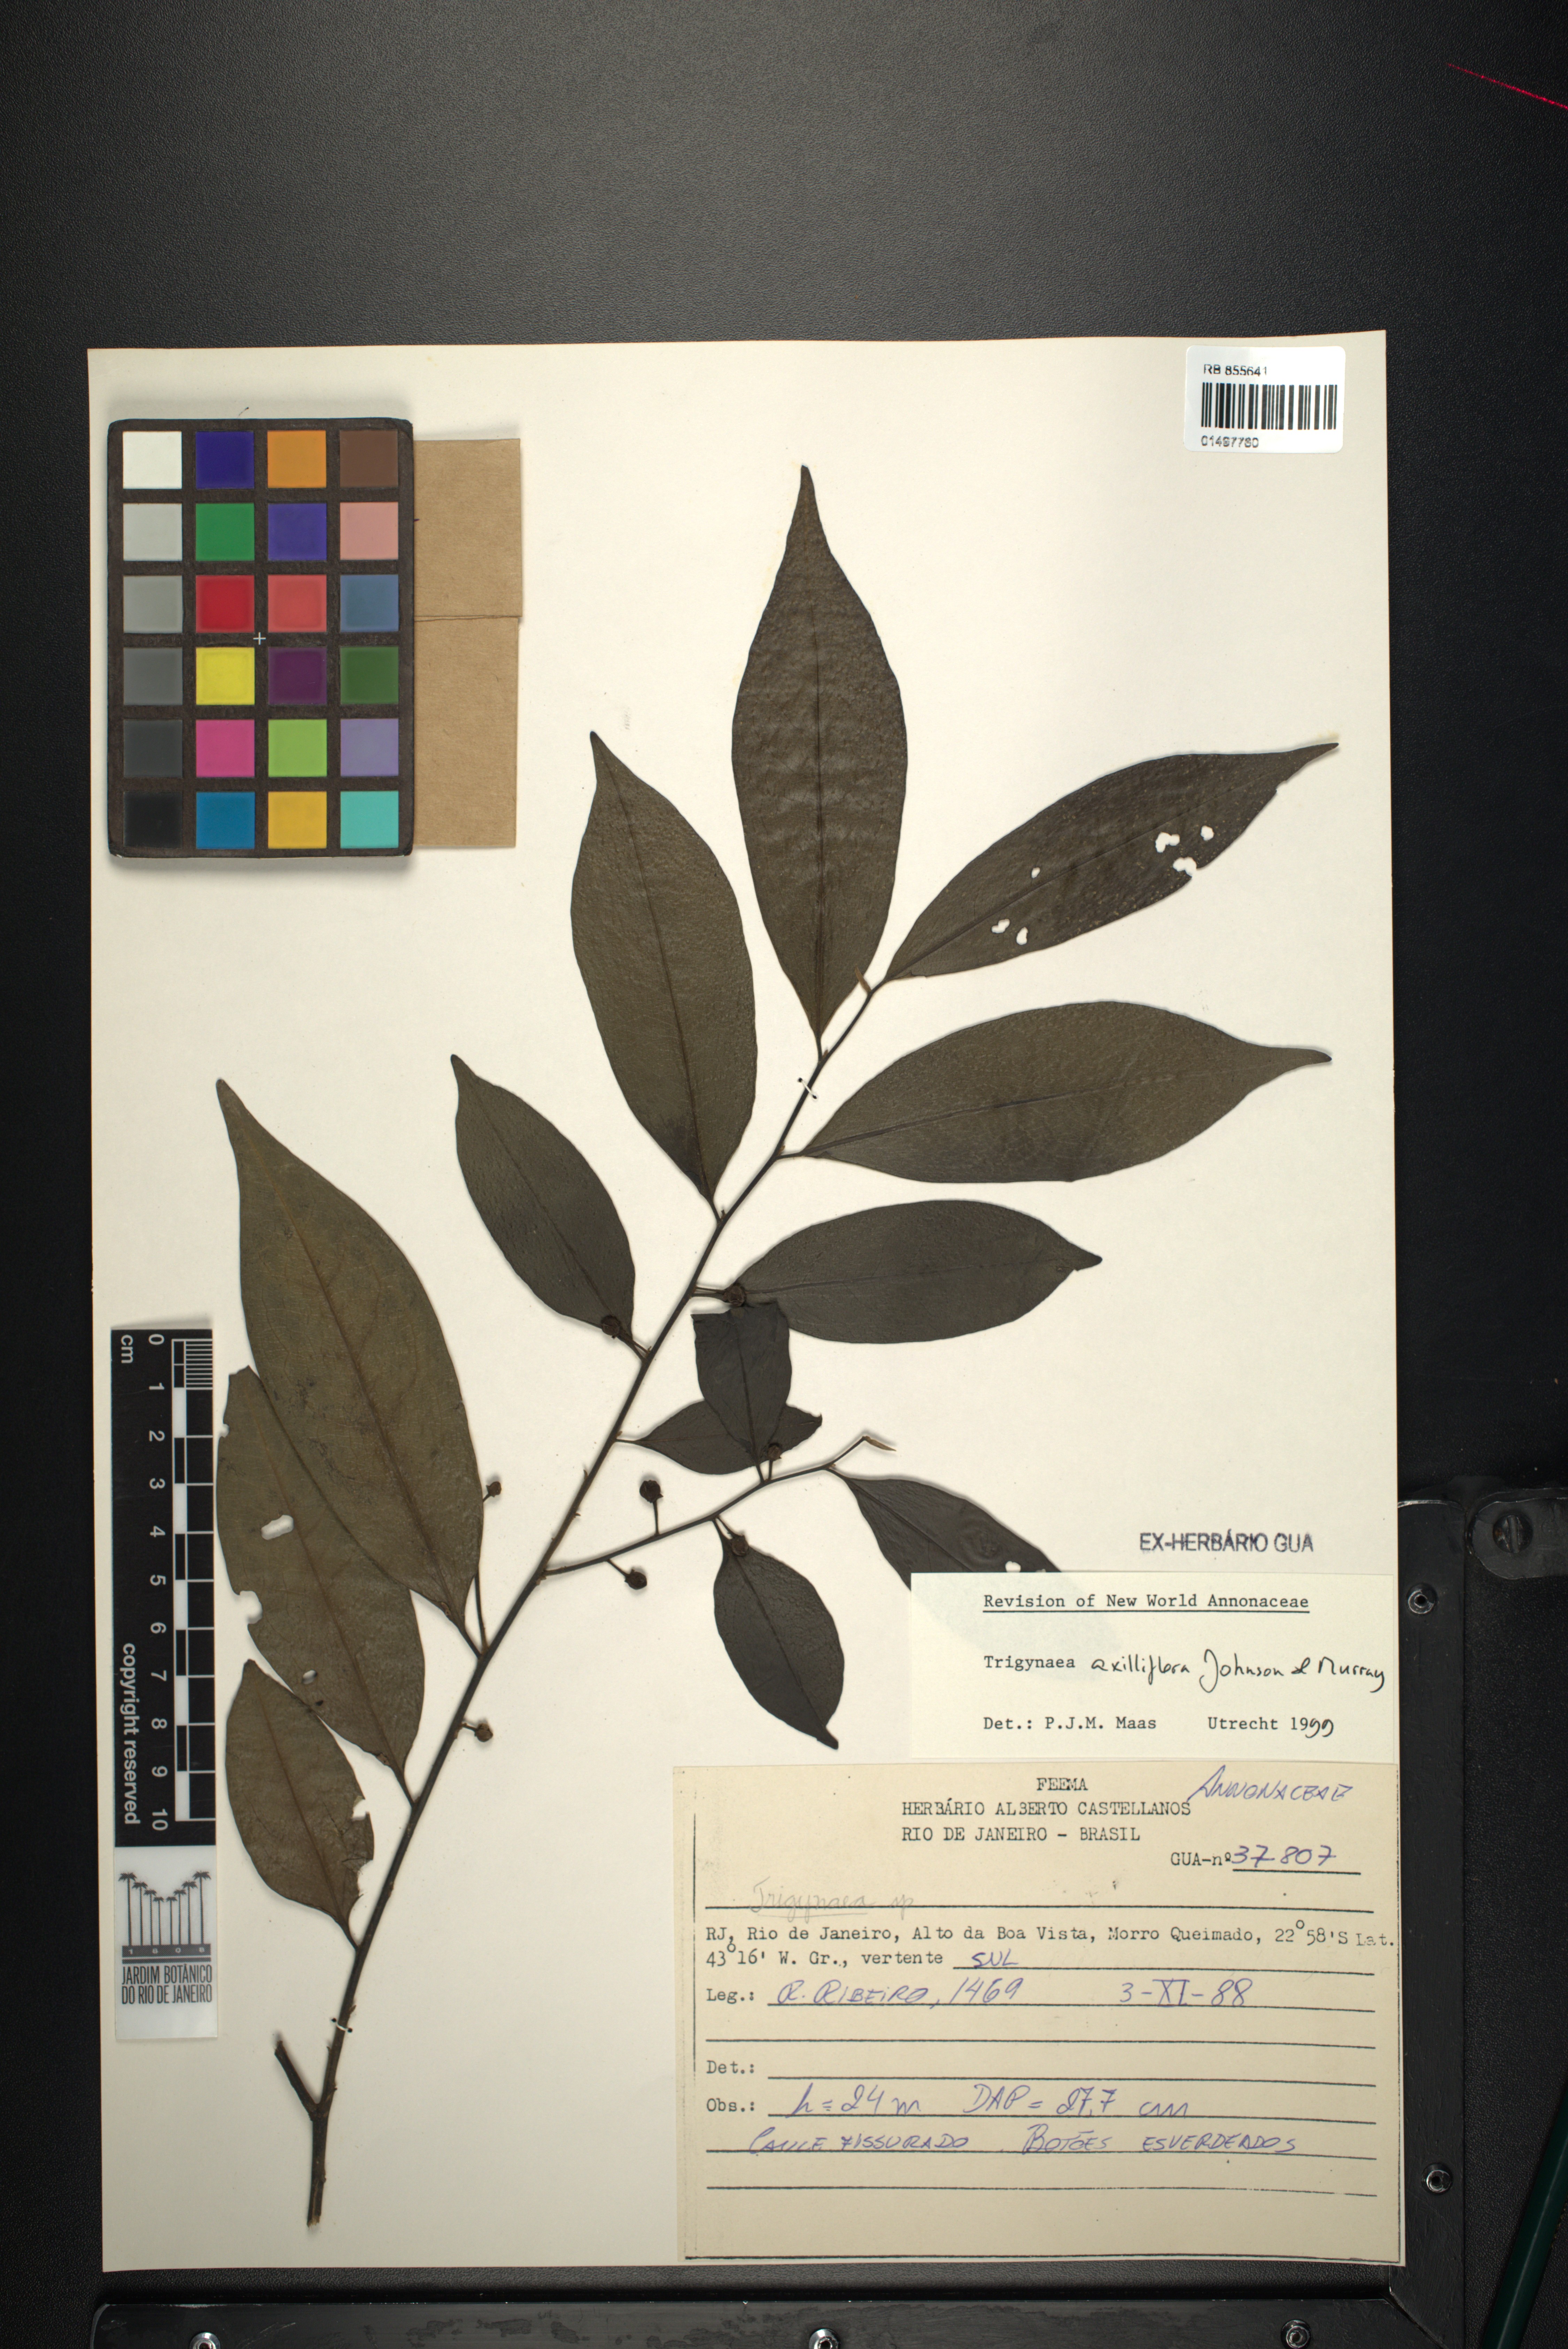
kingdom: Plantae
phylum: Tracheophyta
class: Magnoliopsida
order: Magnoliales
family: Annonaceae
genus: Trigynaea
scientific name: Trigynaea axilliflora
